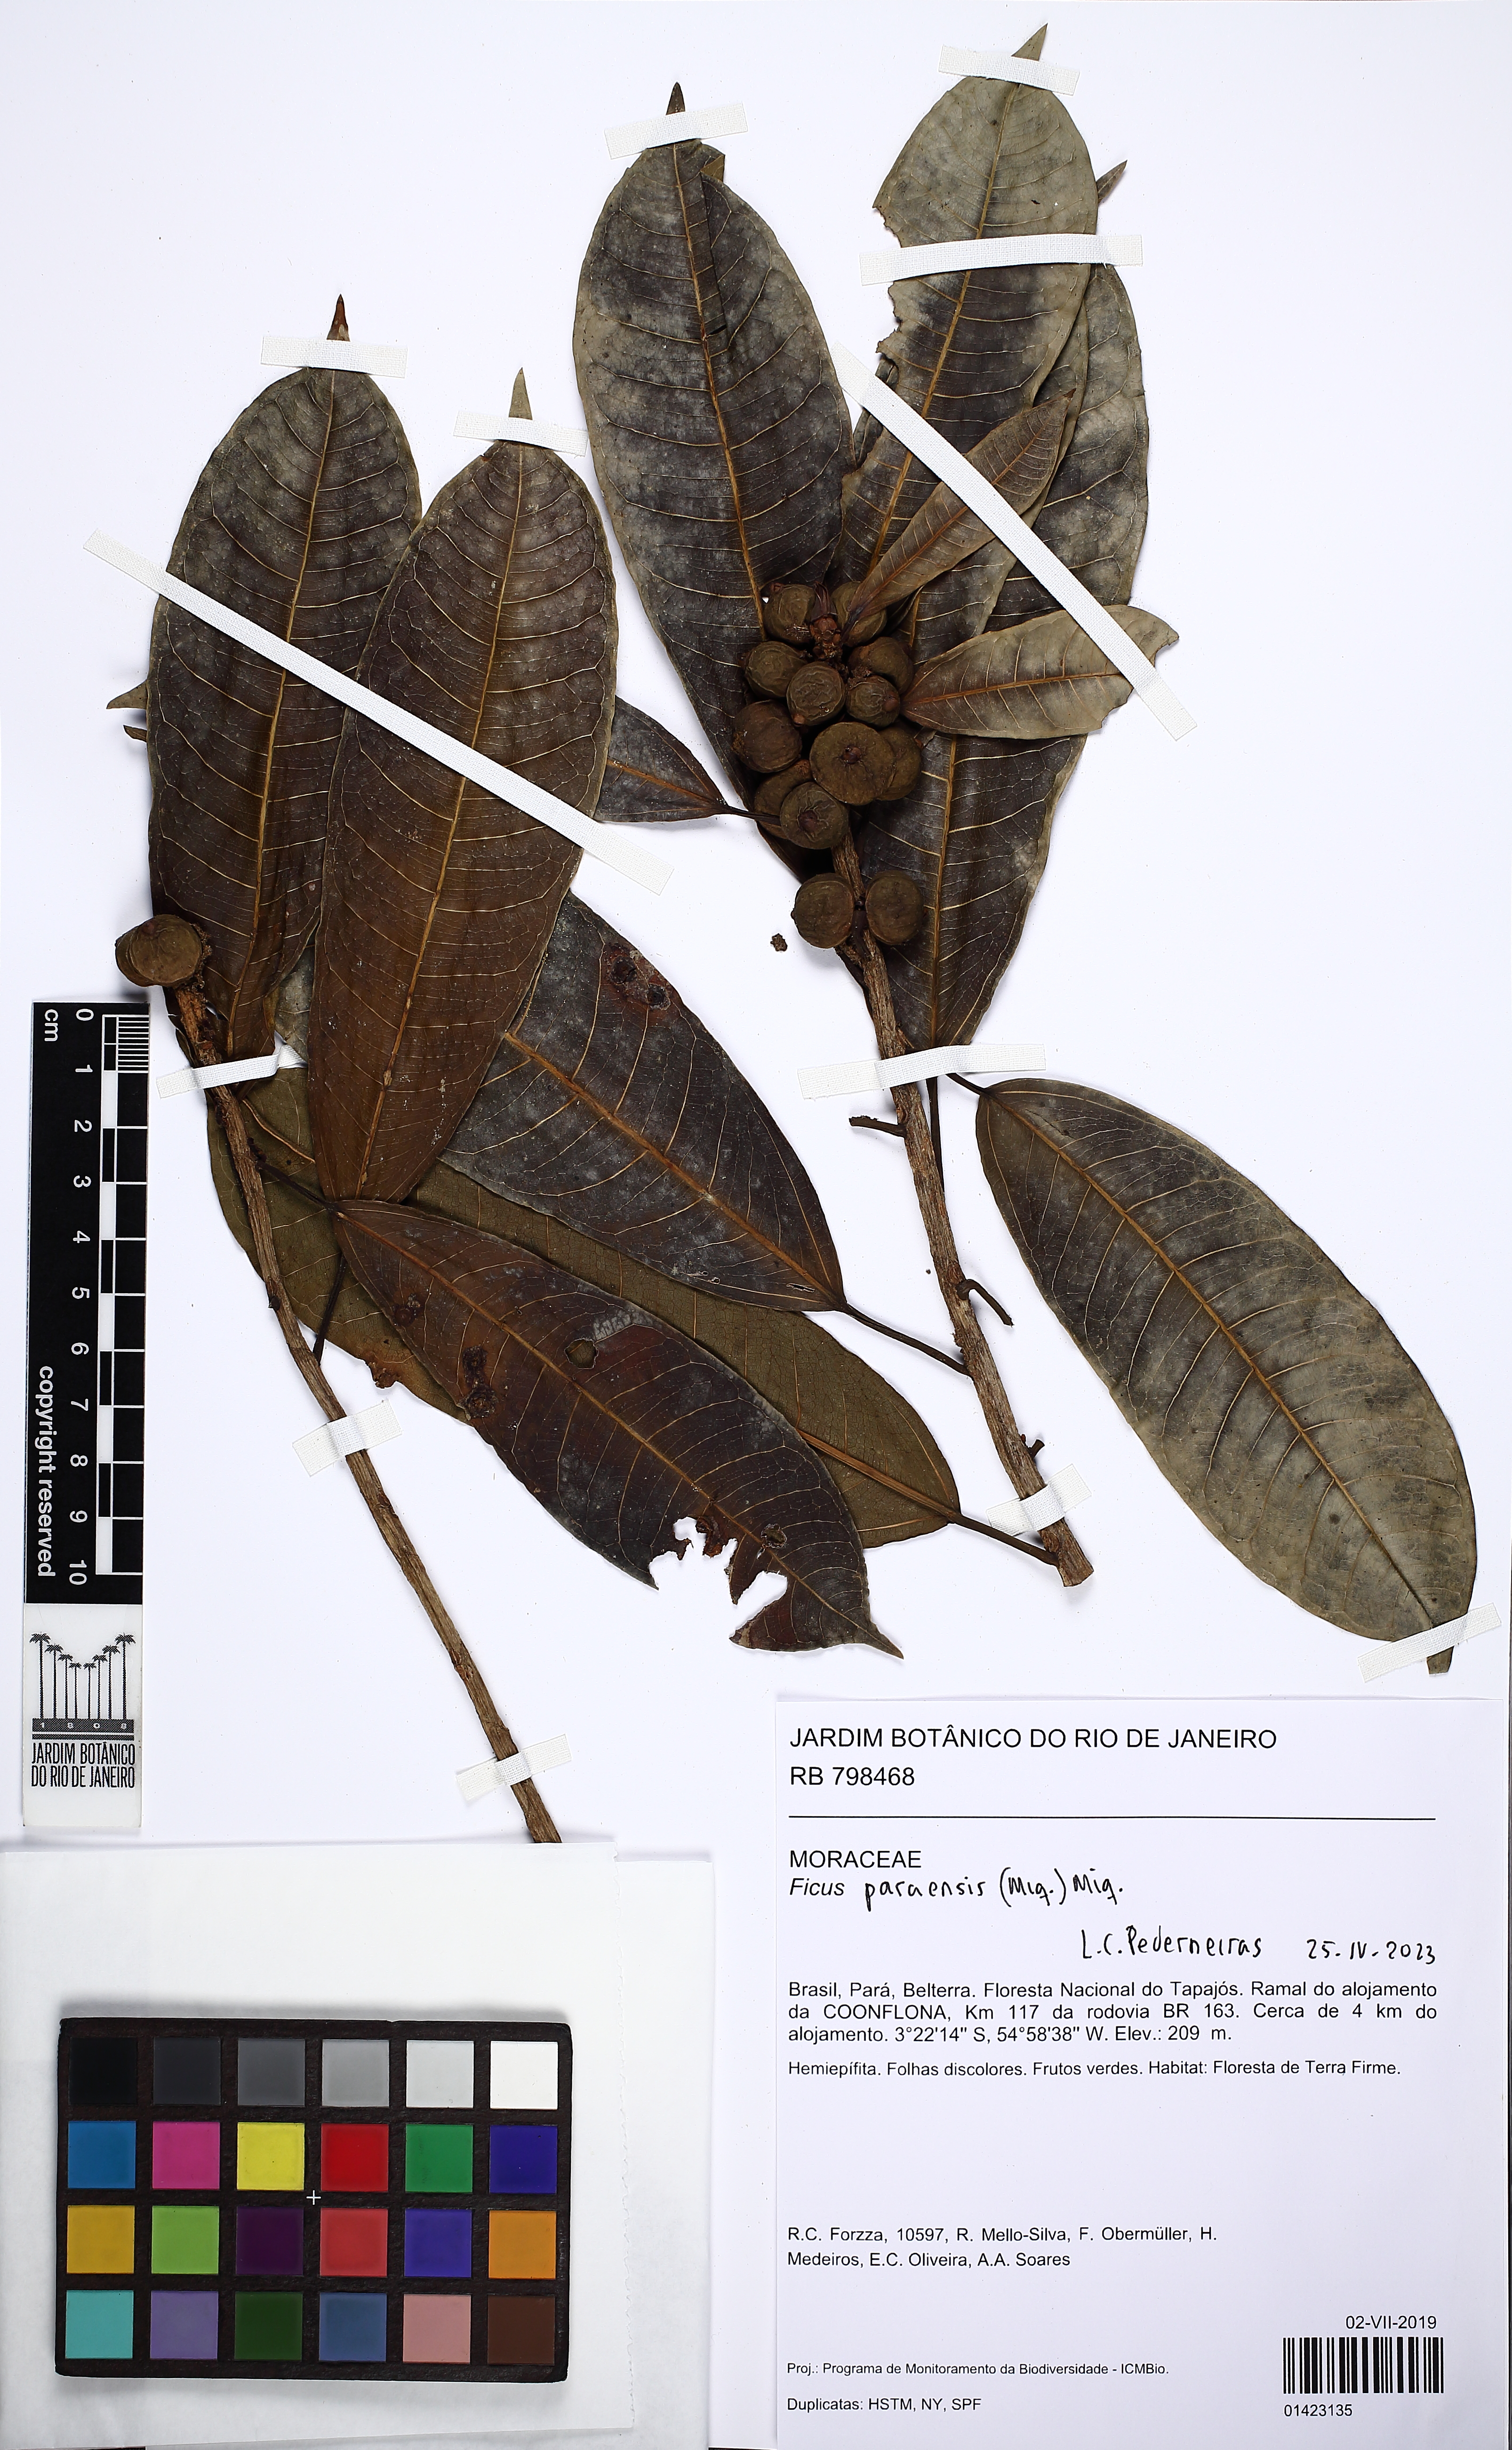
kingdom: Plantae
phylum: Tracheophyta
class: Magnoliopsida
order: Rosales
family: Moraceae
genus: Ficus
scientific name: Ficus paraensis
